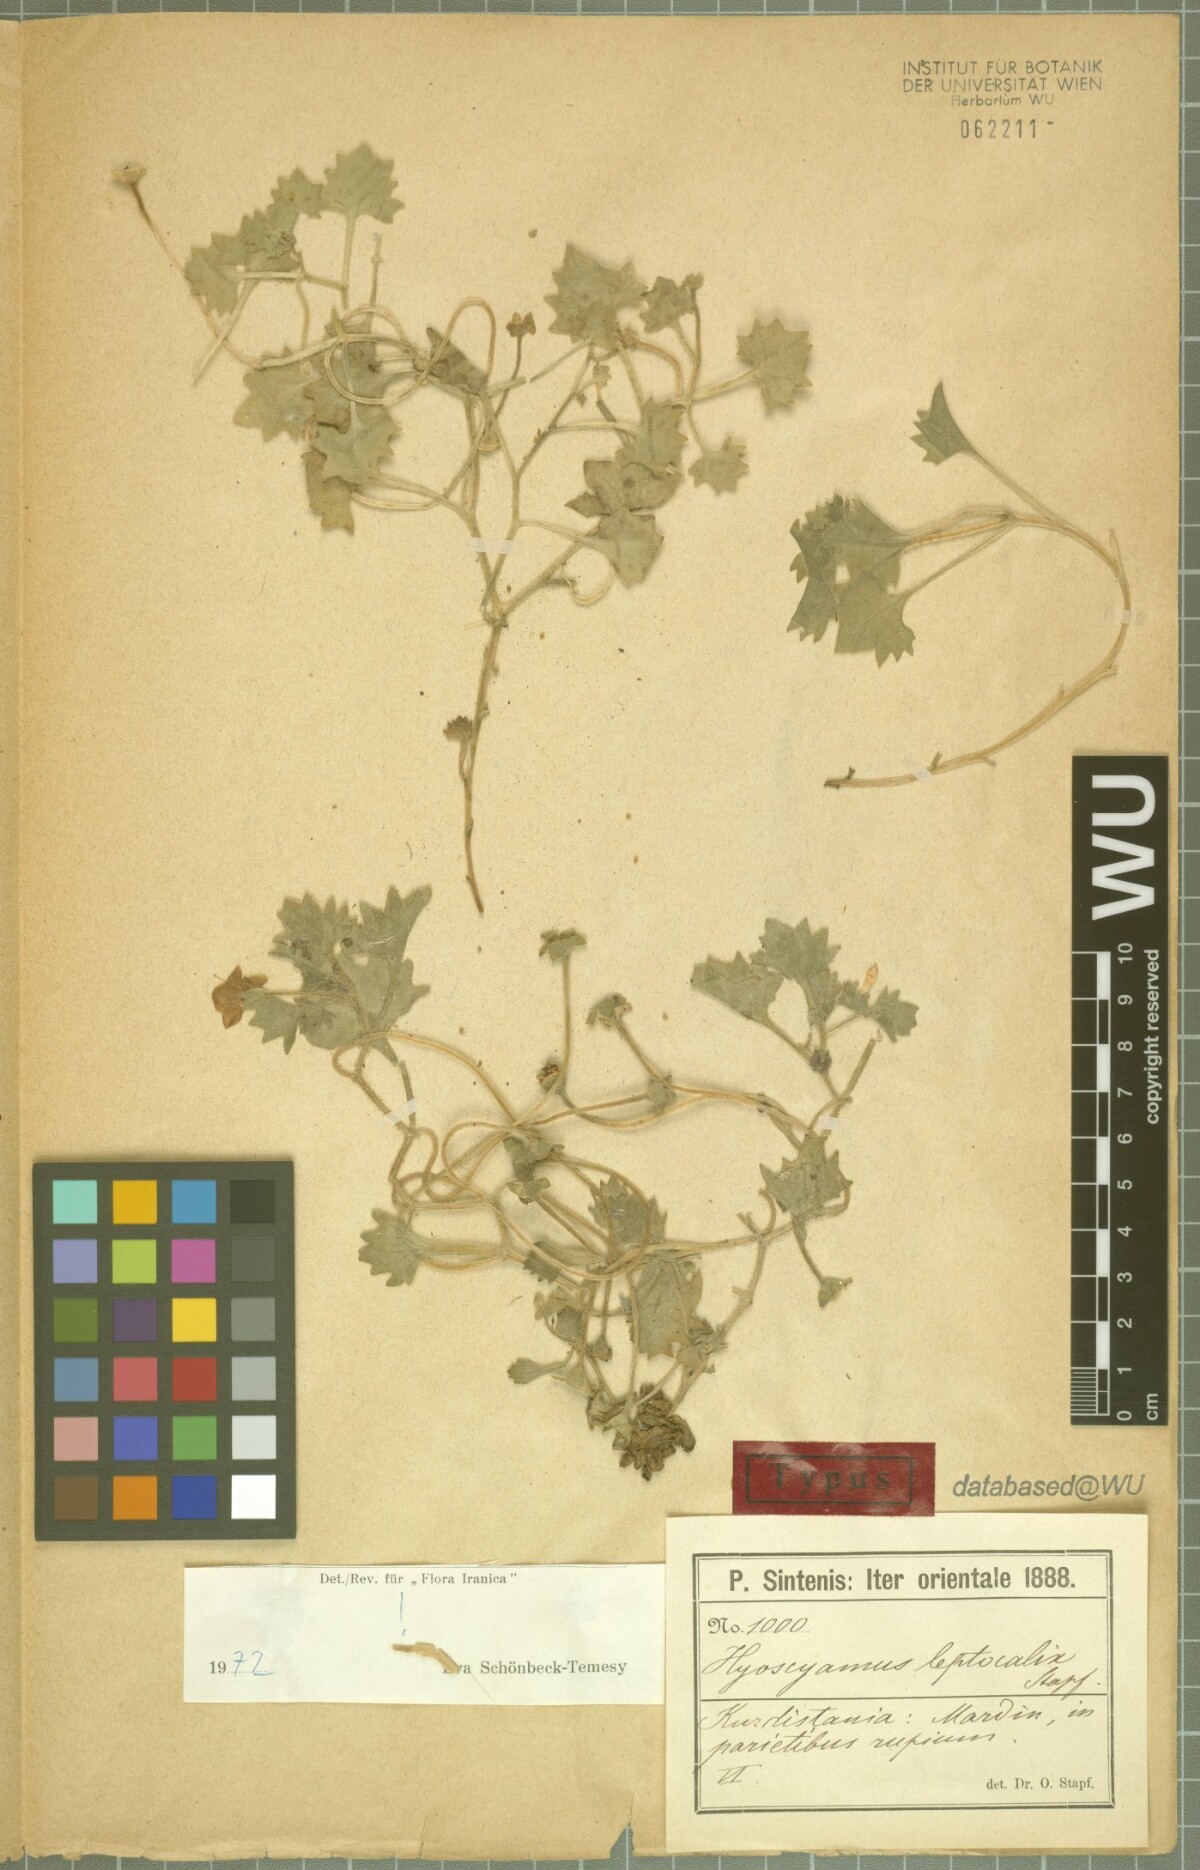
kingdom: Plantae
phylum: Tracheophyta
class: Magnoliopsida
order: Solanales
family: Solanaceae
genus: Hyoscyamus
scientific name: Hyoscyamus leptocalyx
